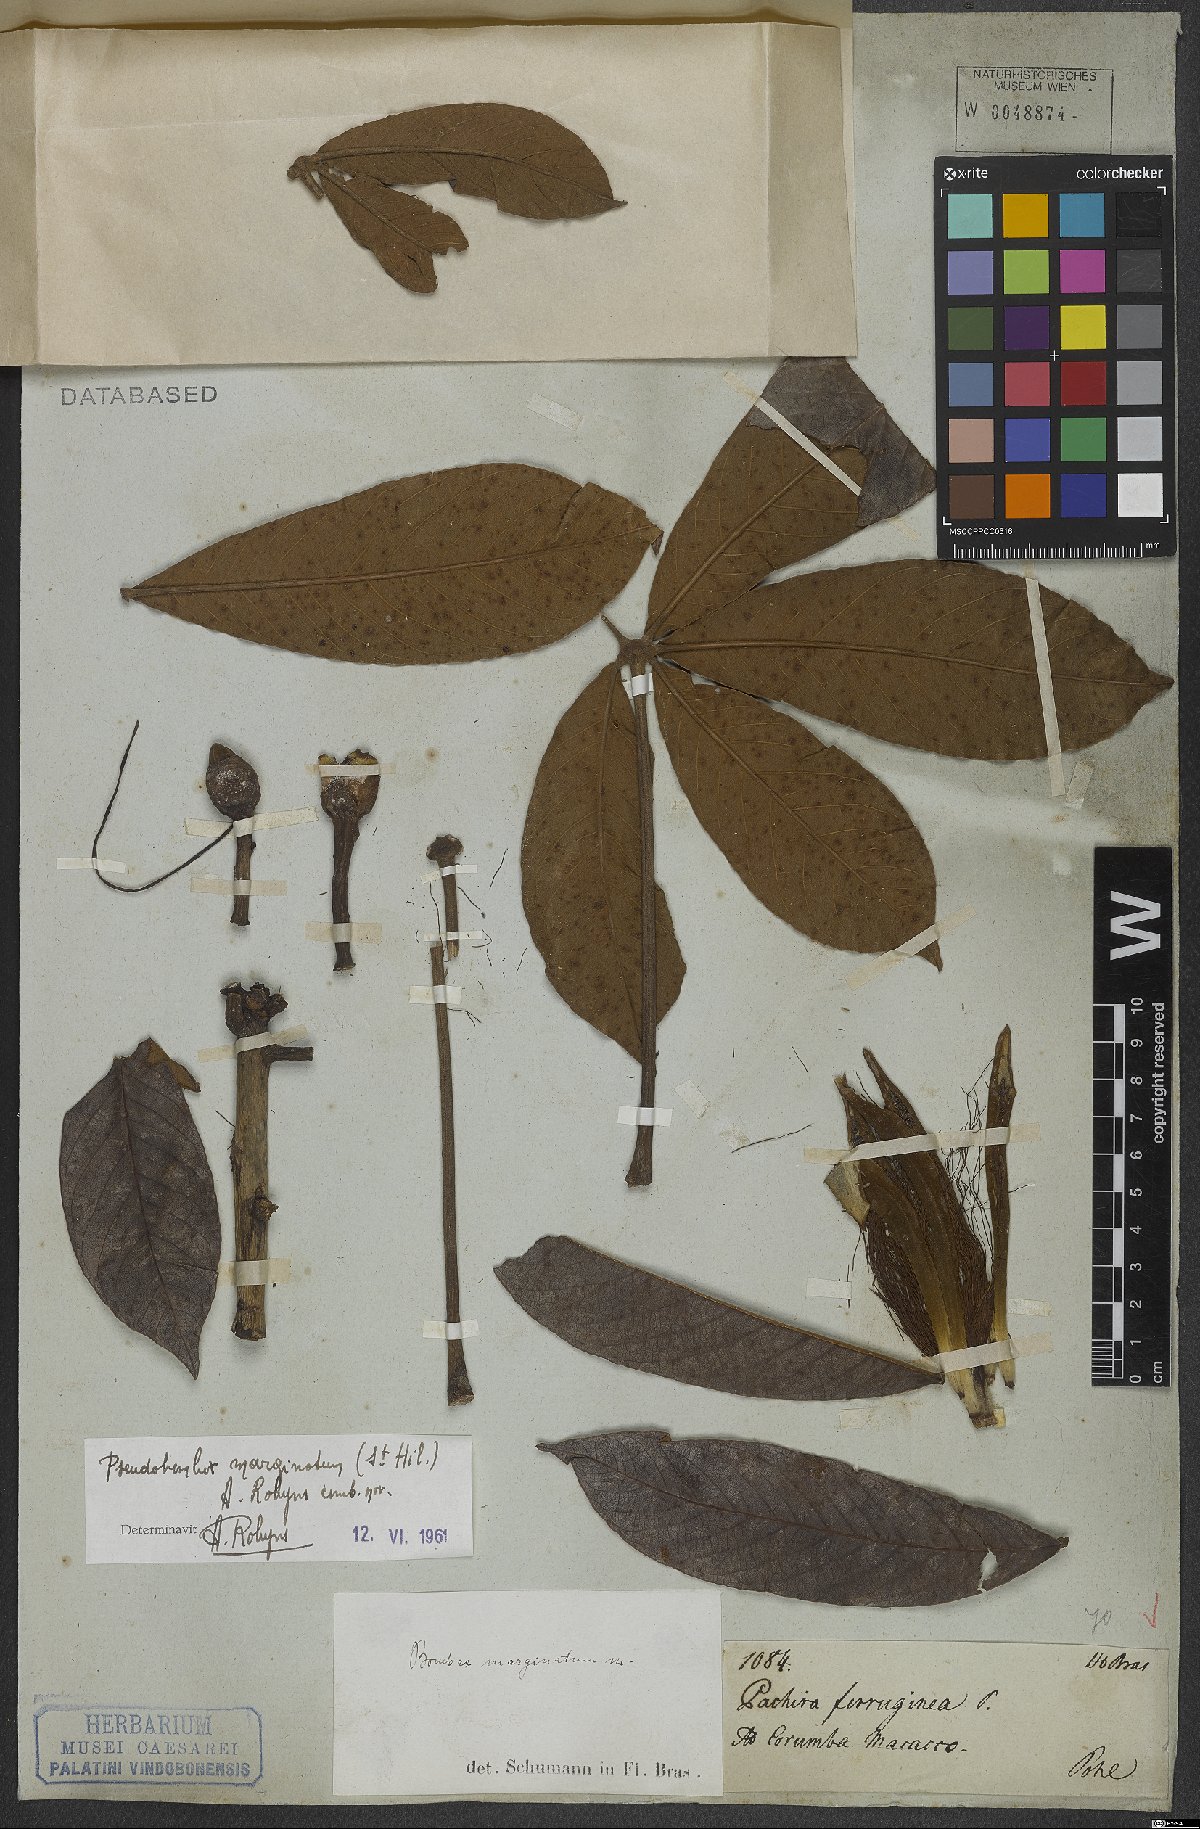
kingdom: Plantae
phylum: Tracheophyta
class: Magnoliopsida
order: Malvales
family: Malvaceae
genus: Pseudobombax
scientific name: Pseudobombax marginatum
